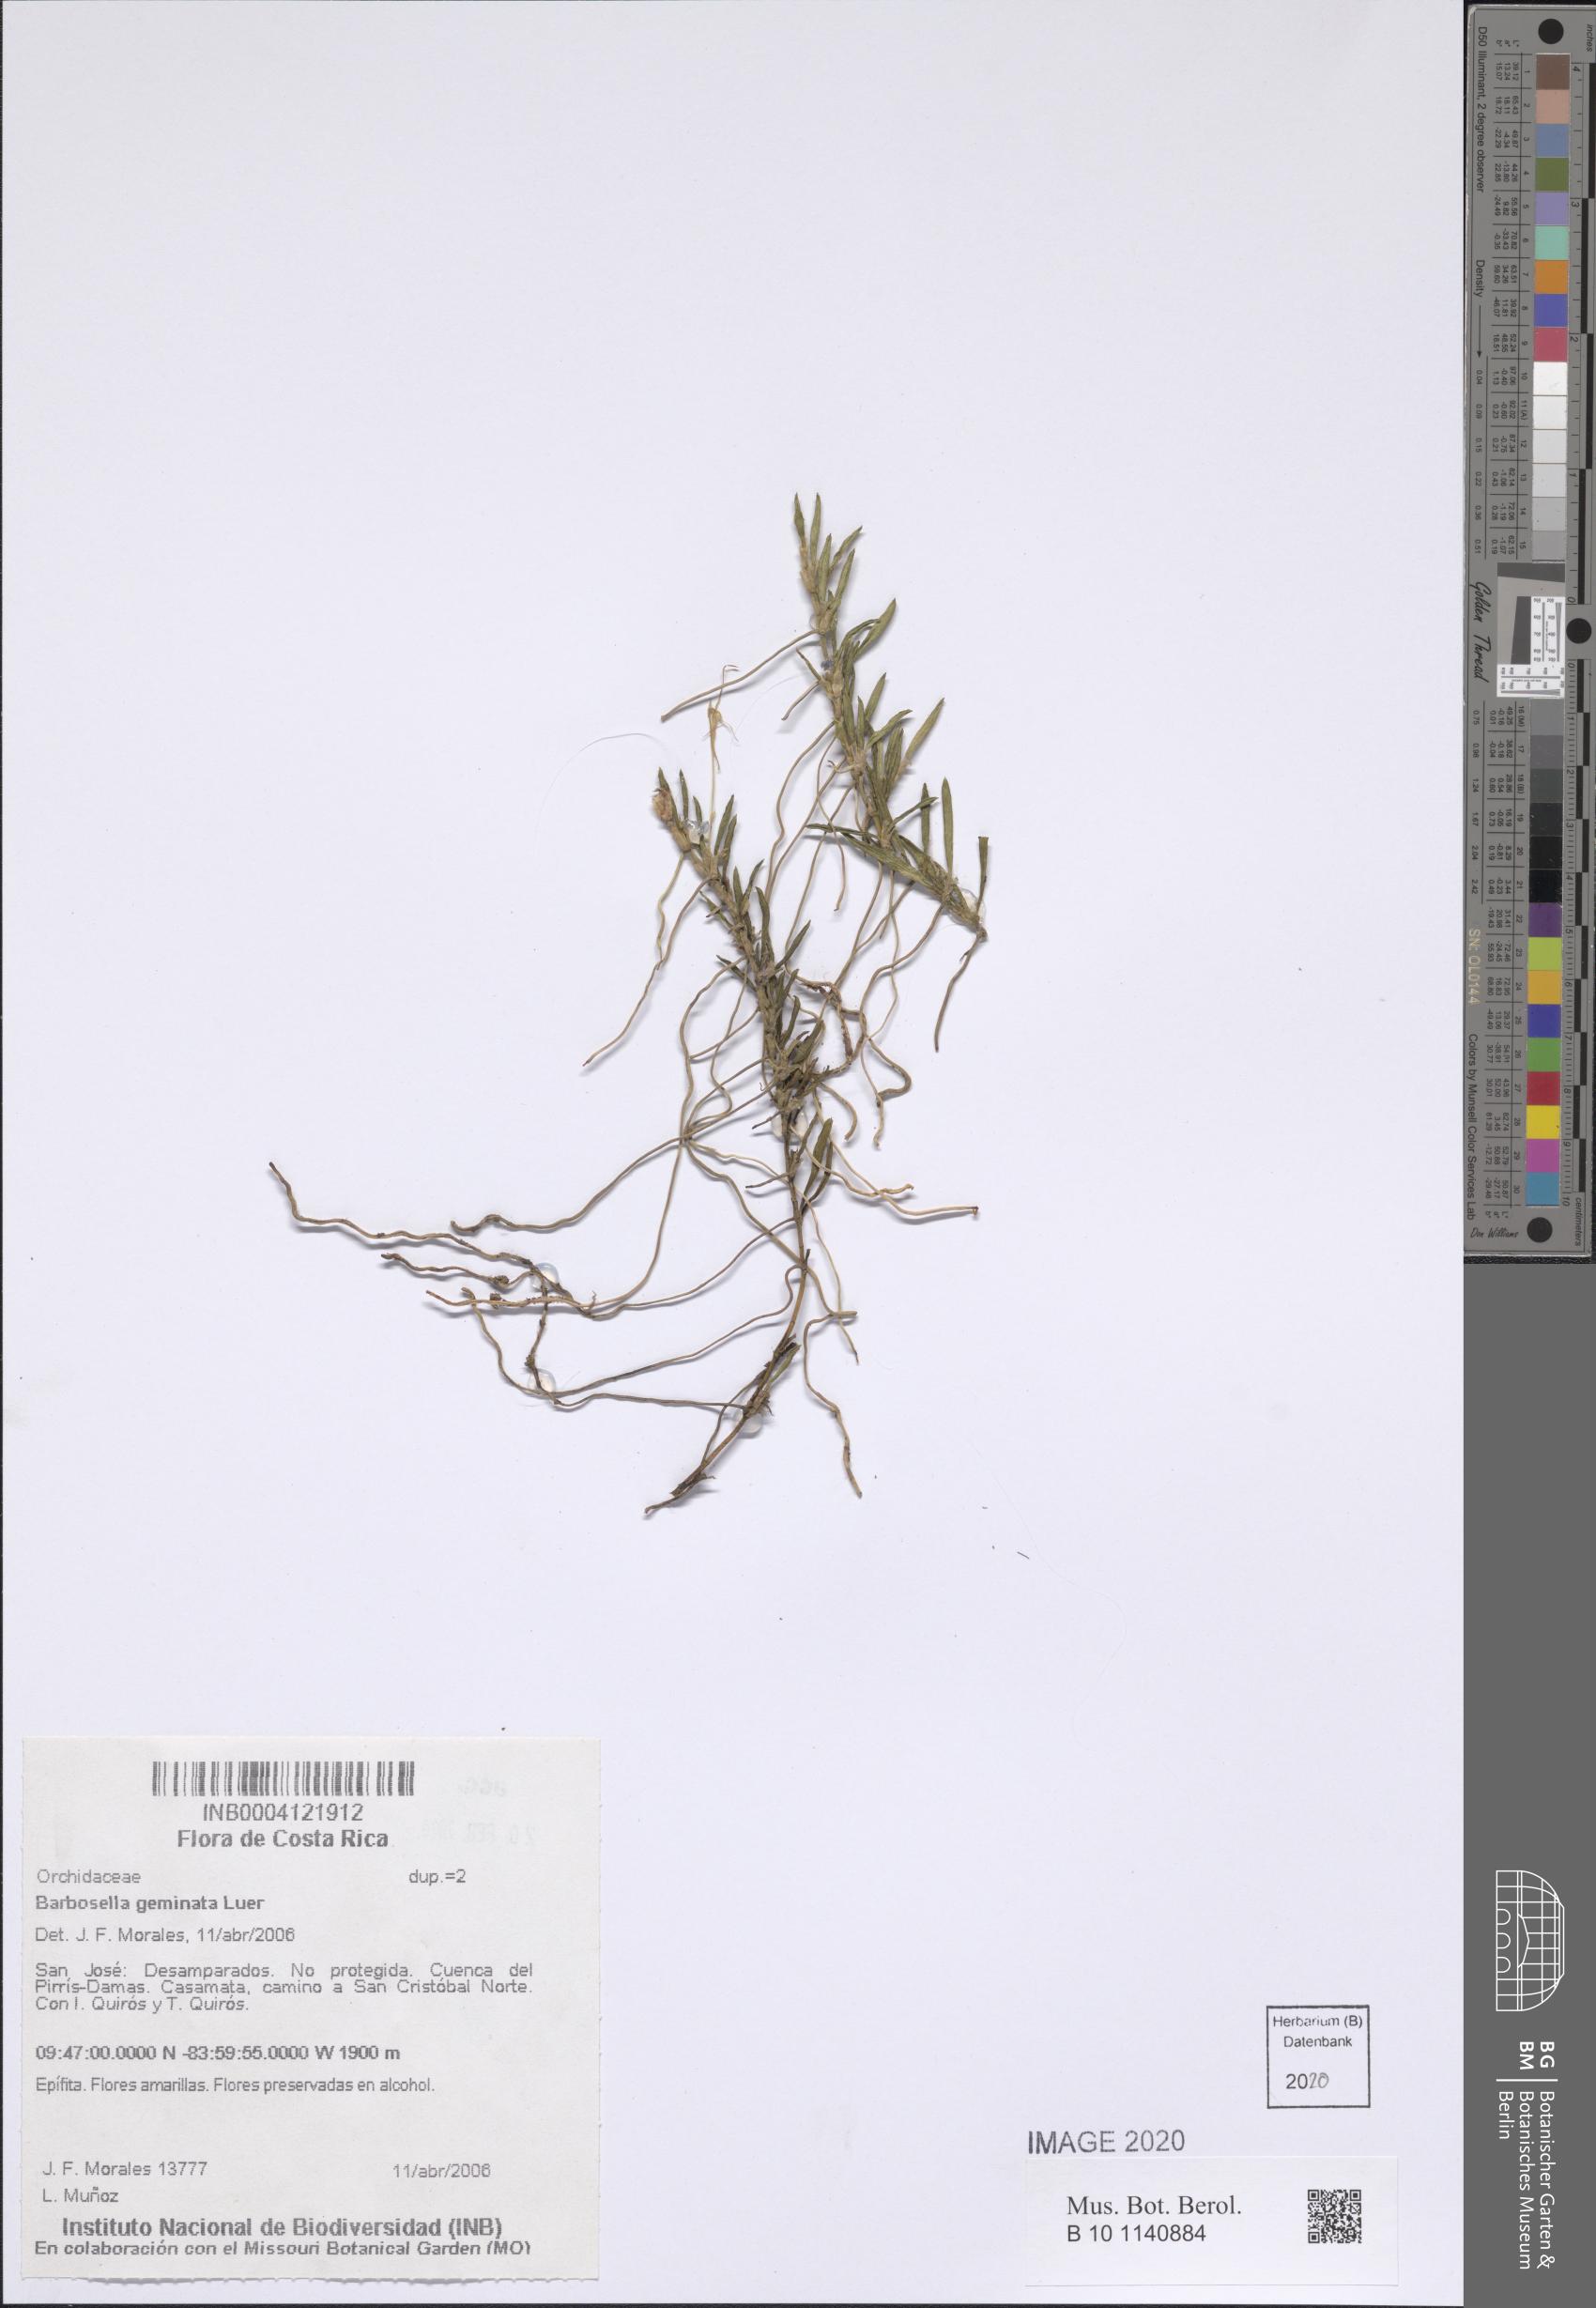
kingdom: Plantae
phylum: Tracheophyta
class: Liliopsida
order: Asparagales
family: Orchidaceae
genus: Barbosella
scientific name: Barbosella geminata
